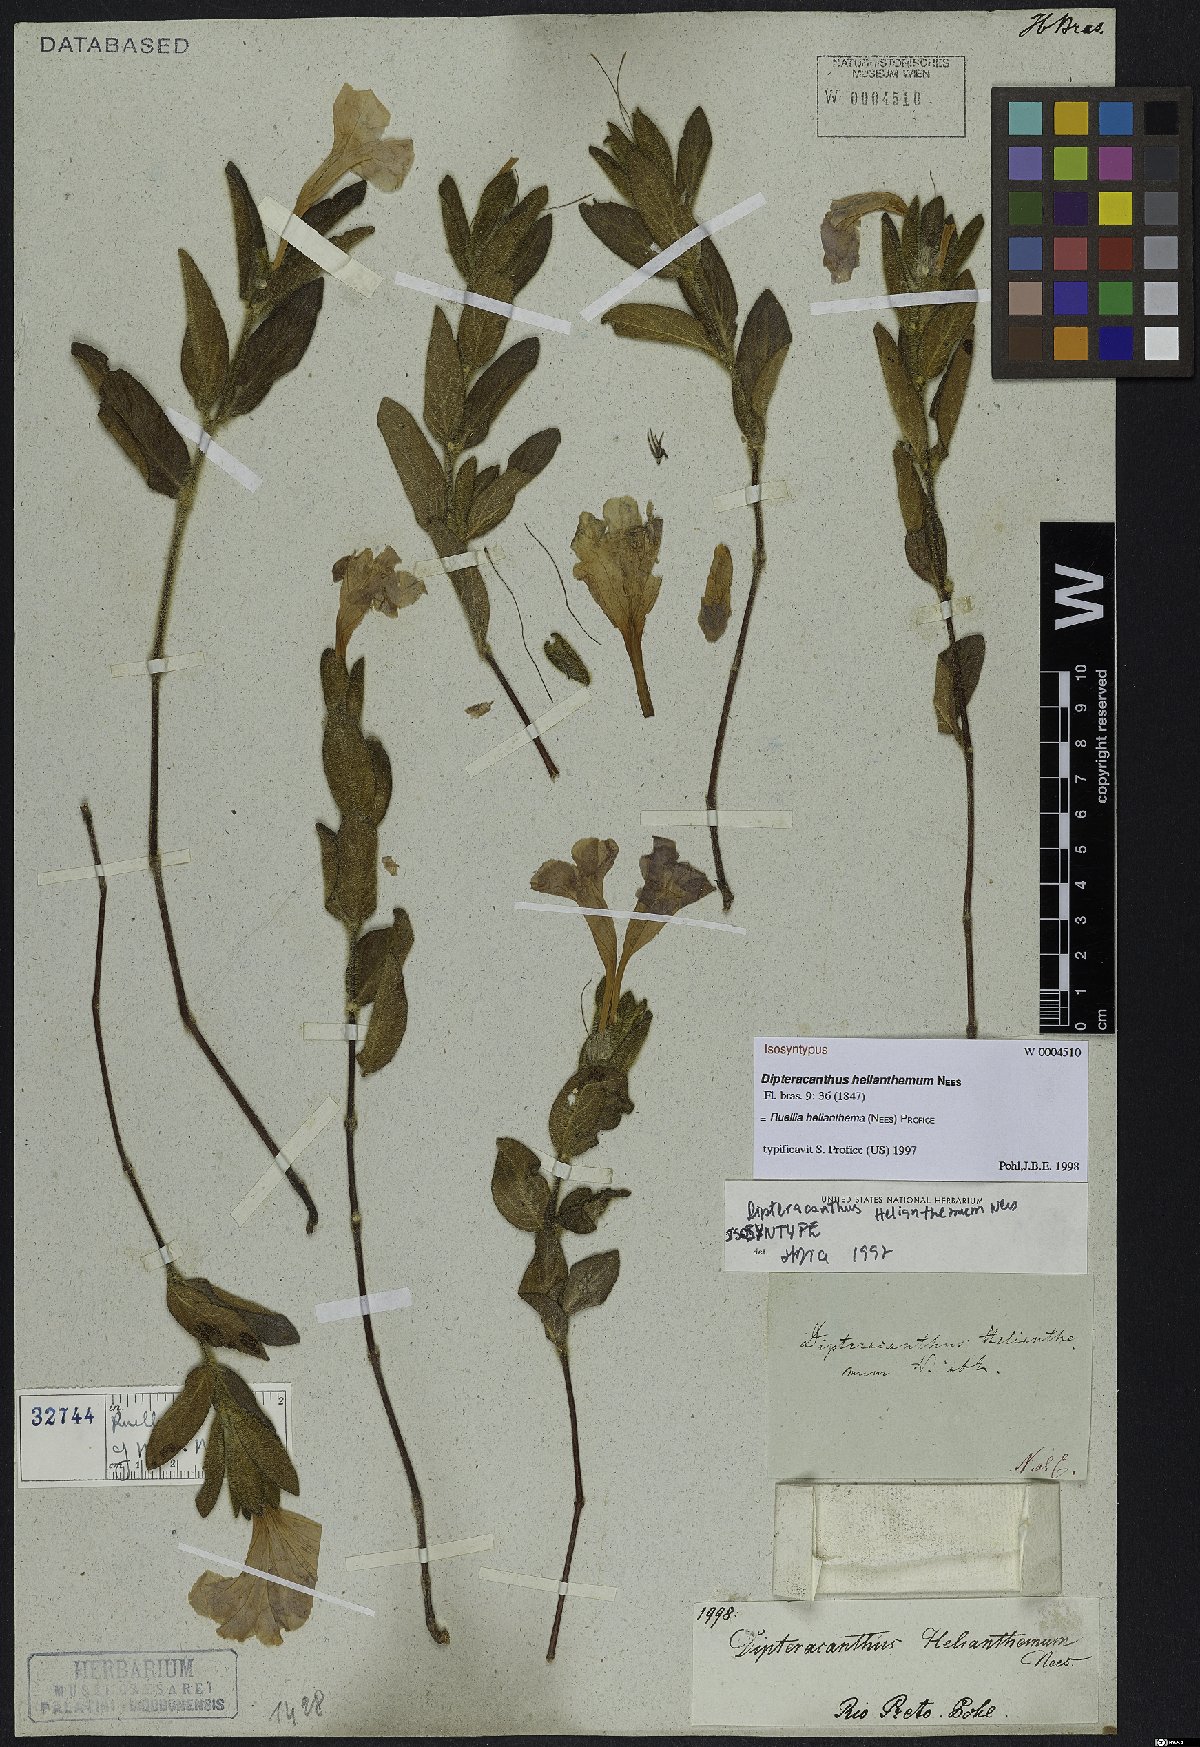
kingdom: Plantae
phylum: Tracheophyta
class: Magnoliopsida
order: Lamiales
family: Acanthaceae
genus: Ruellia
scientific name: Ruellia helianthema
